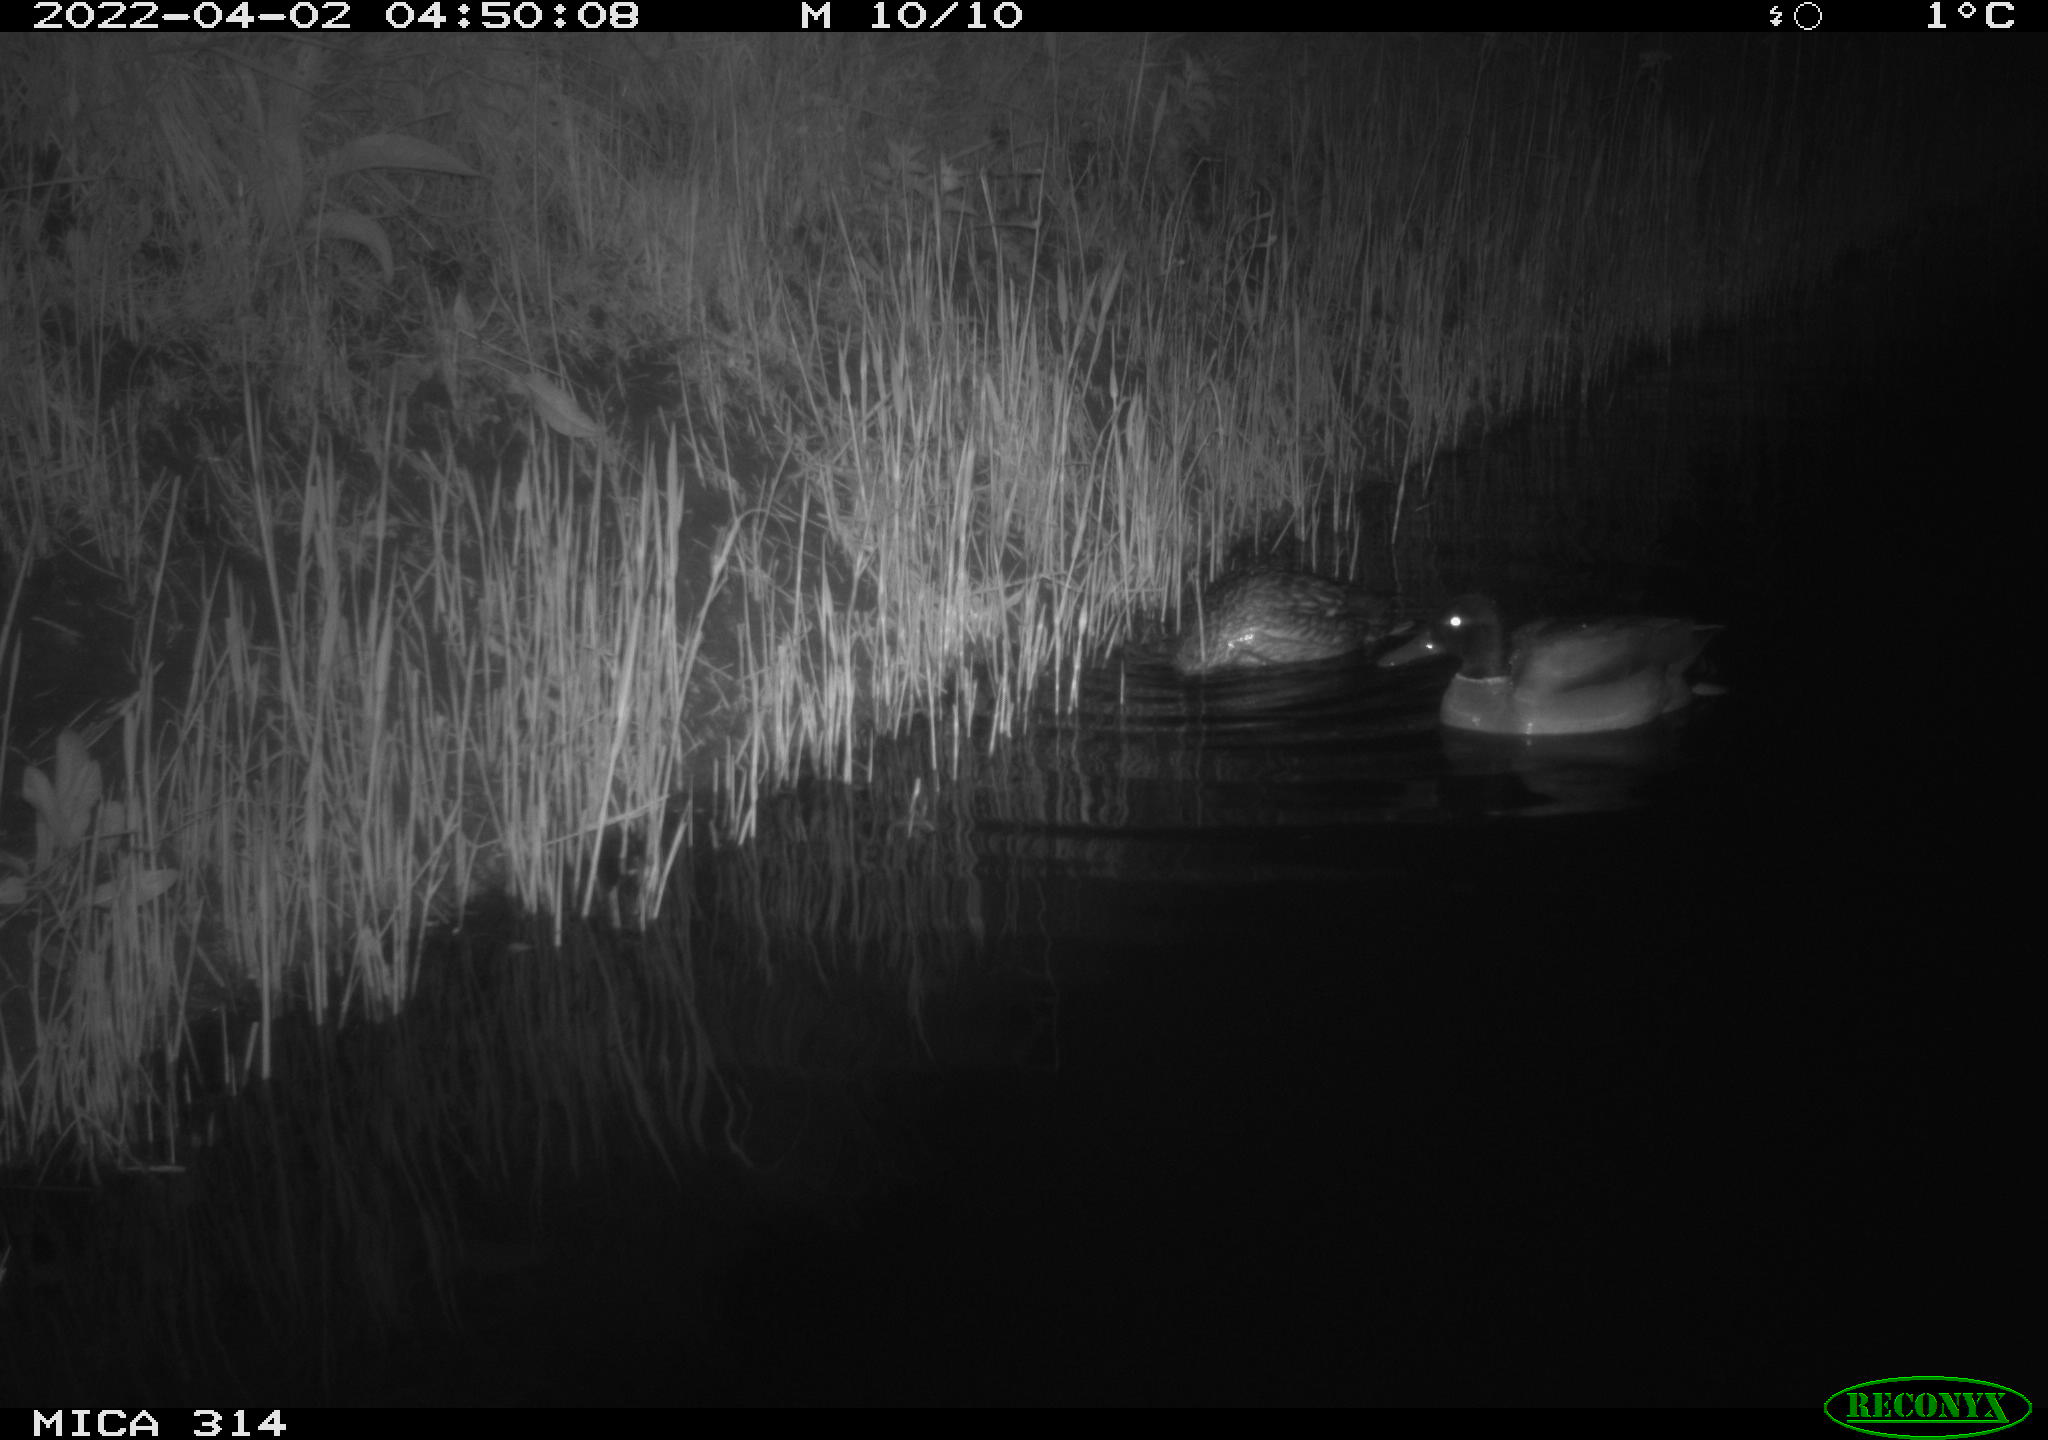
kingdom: Animalia
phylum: Chordata
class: Aves
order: Anseriformes
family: Anatidae
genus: Anas
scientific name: Anas platyrhynchos
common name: Mallard
